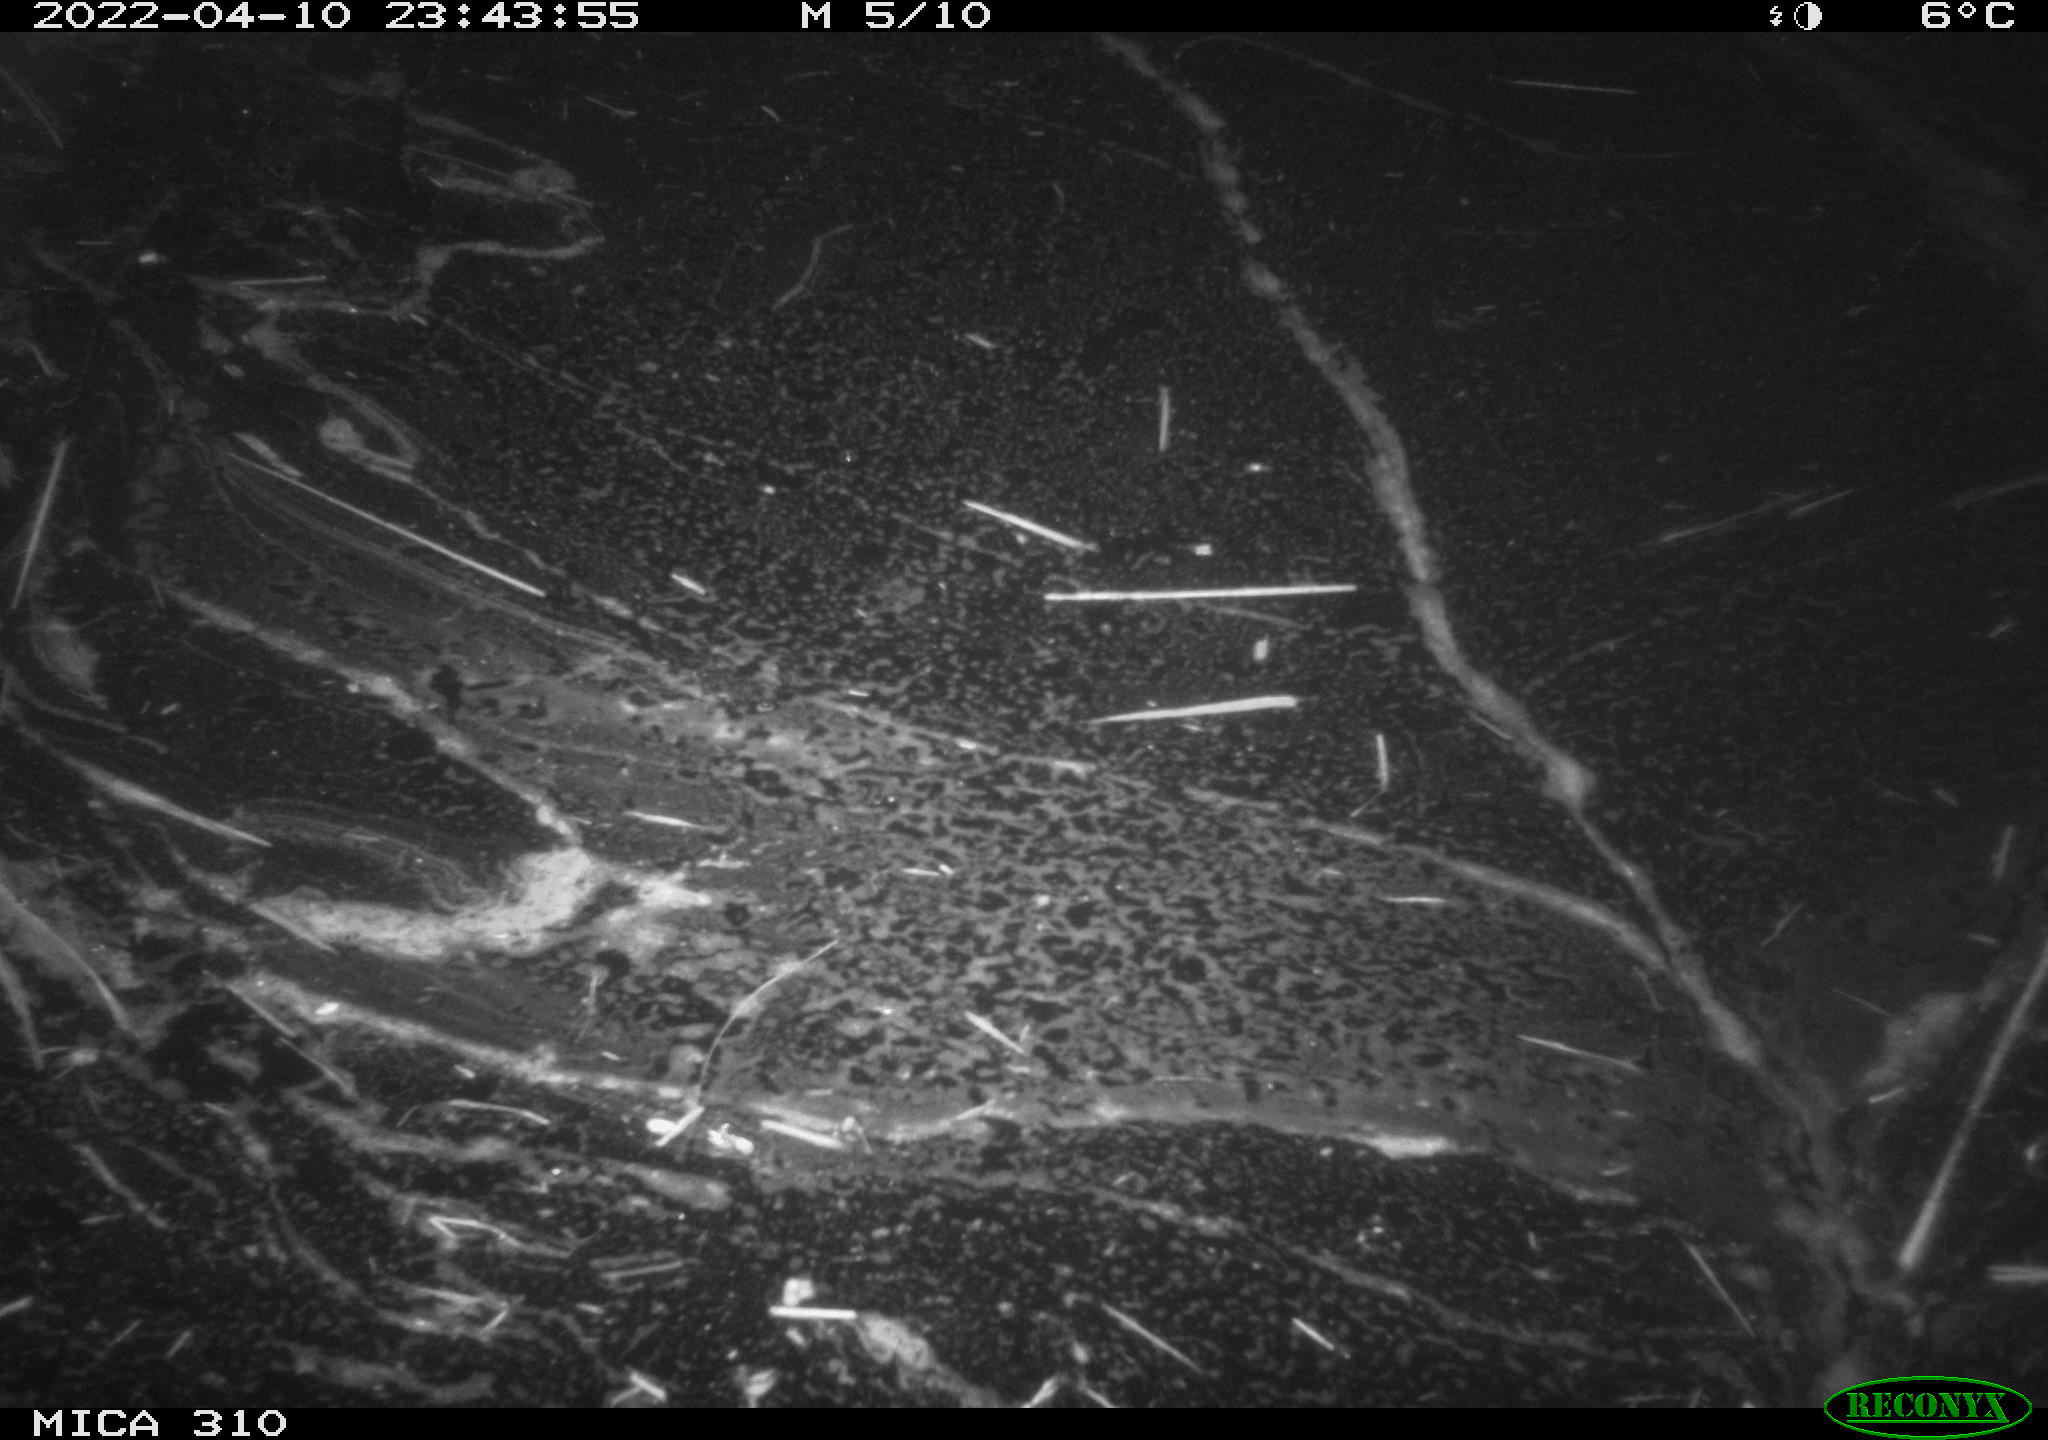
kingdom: Animalia
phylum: Chordata
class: Aves
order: Anseriformes
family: Anatidae
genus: Anas
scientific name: Anas platyrhynchos
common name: Mallard
